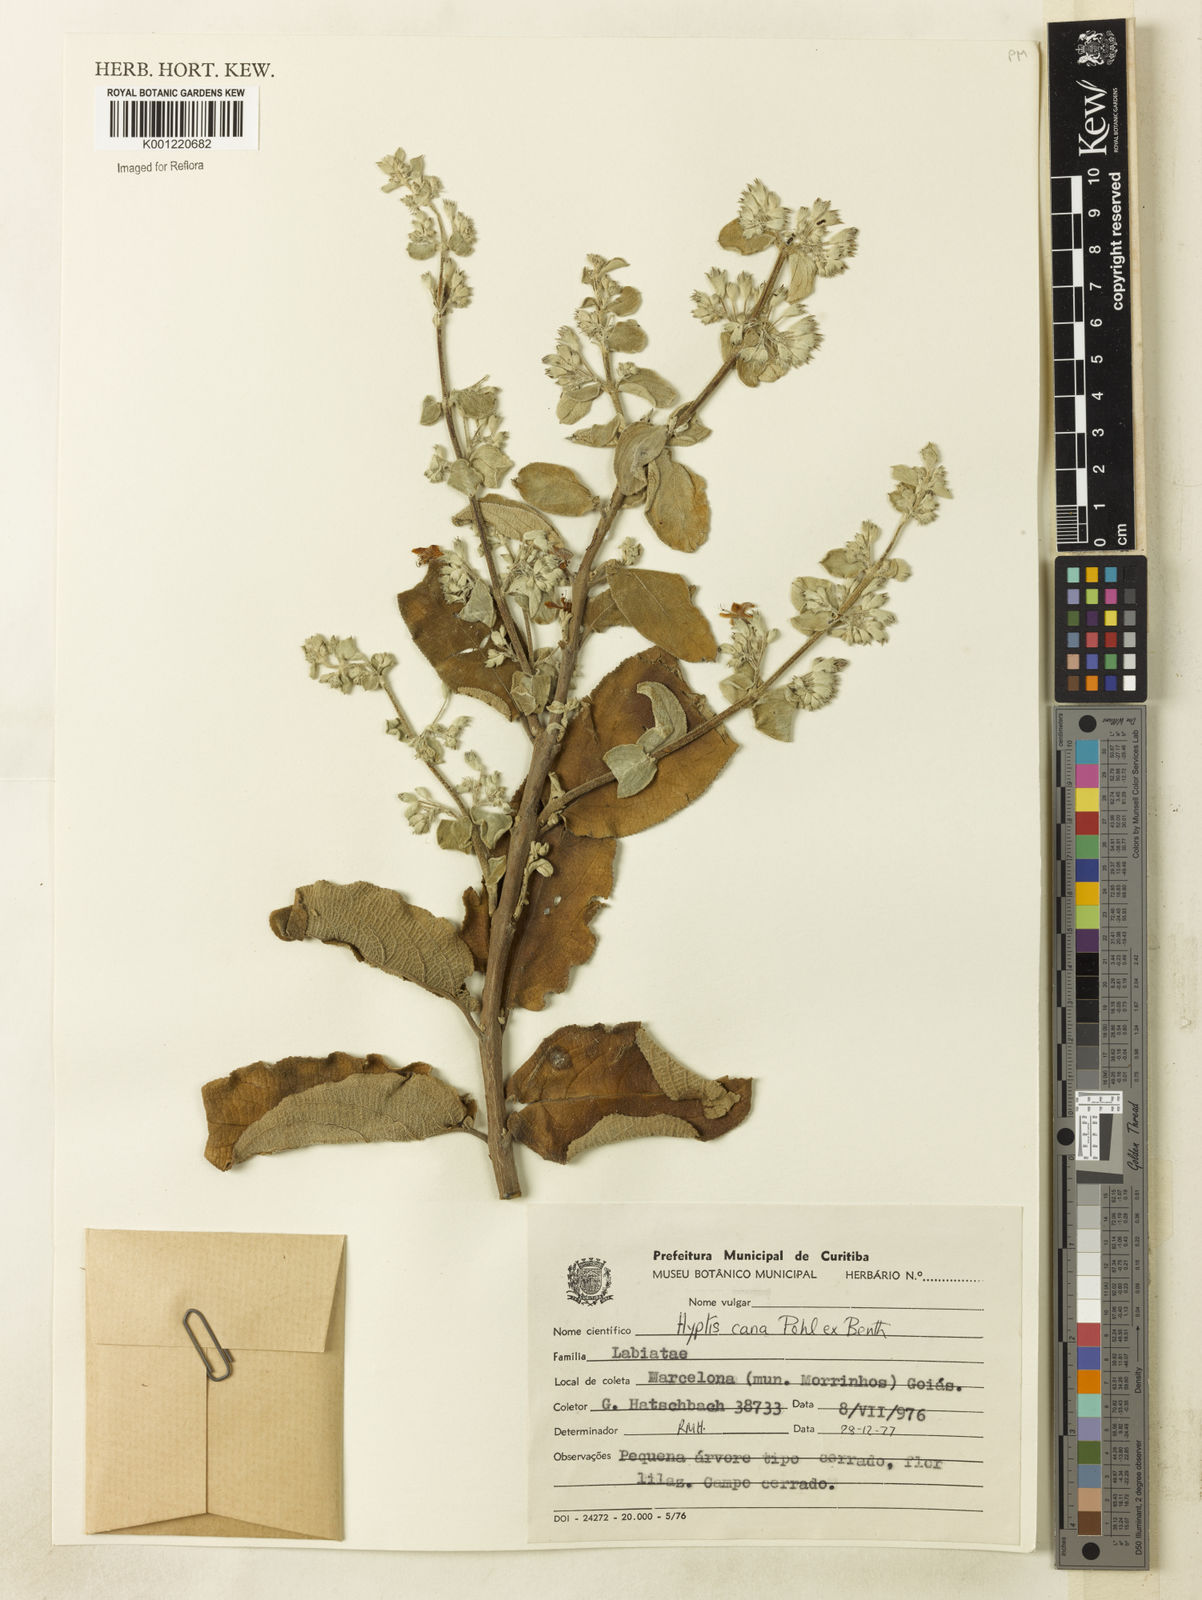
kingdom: Plantae
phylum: Tracheophyta
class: Magnoliopsida
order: Lamiales
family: Lamiaceae
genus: Hyptidendron
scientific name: Hyptidendron canum
